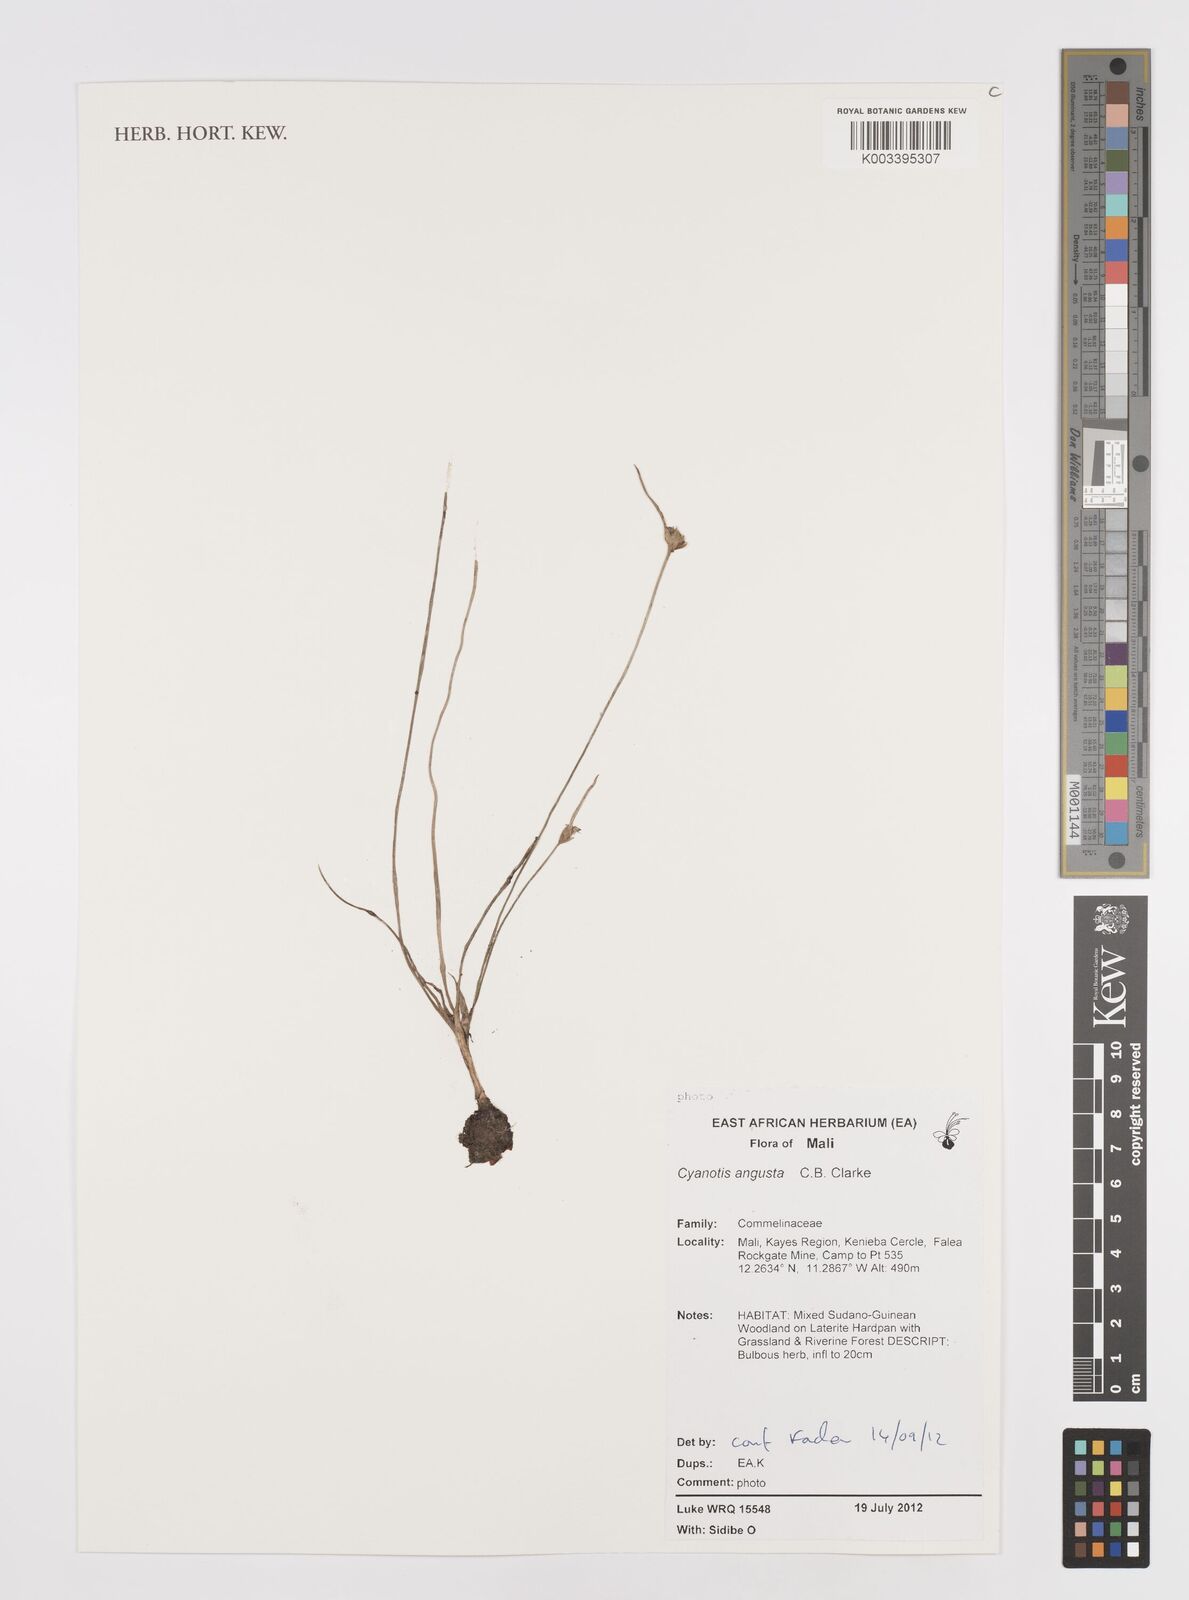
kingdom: Plantae
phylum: Tracheophyta
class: Liliopsida
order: Commelinales
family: Commelinaceae
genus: Cyanotis
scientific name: Cyanotis angusta
